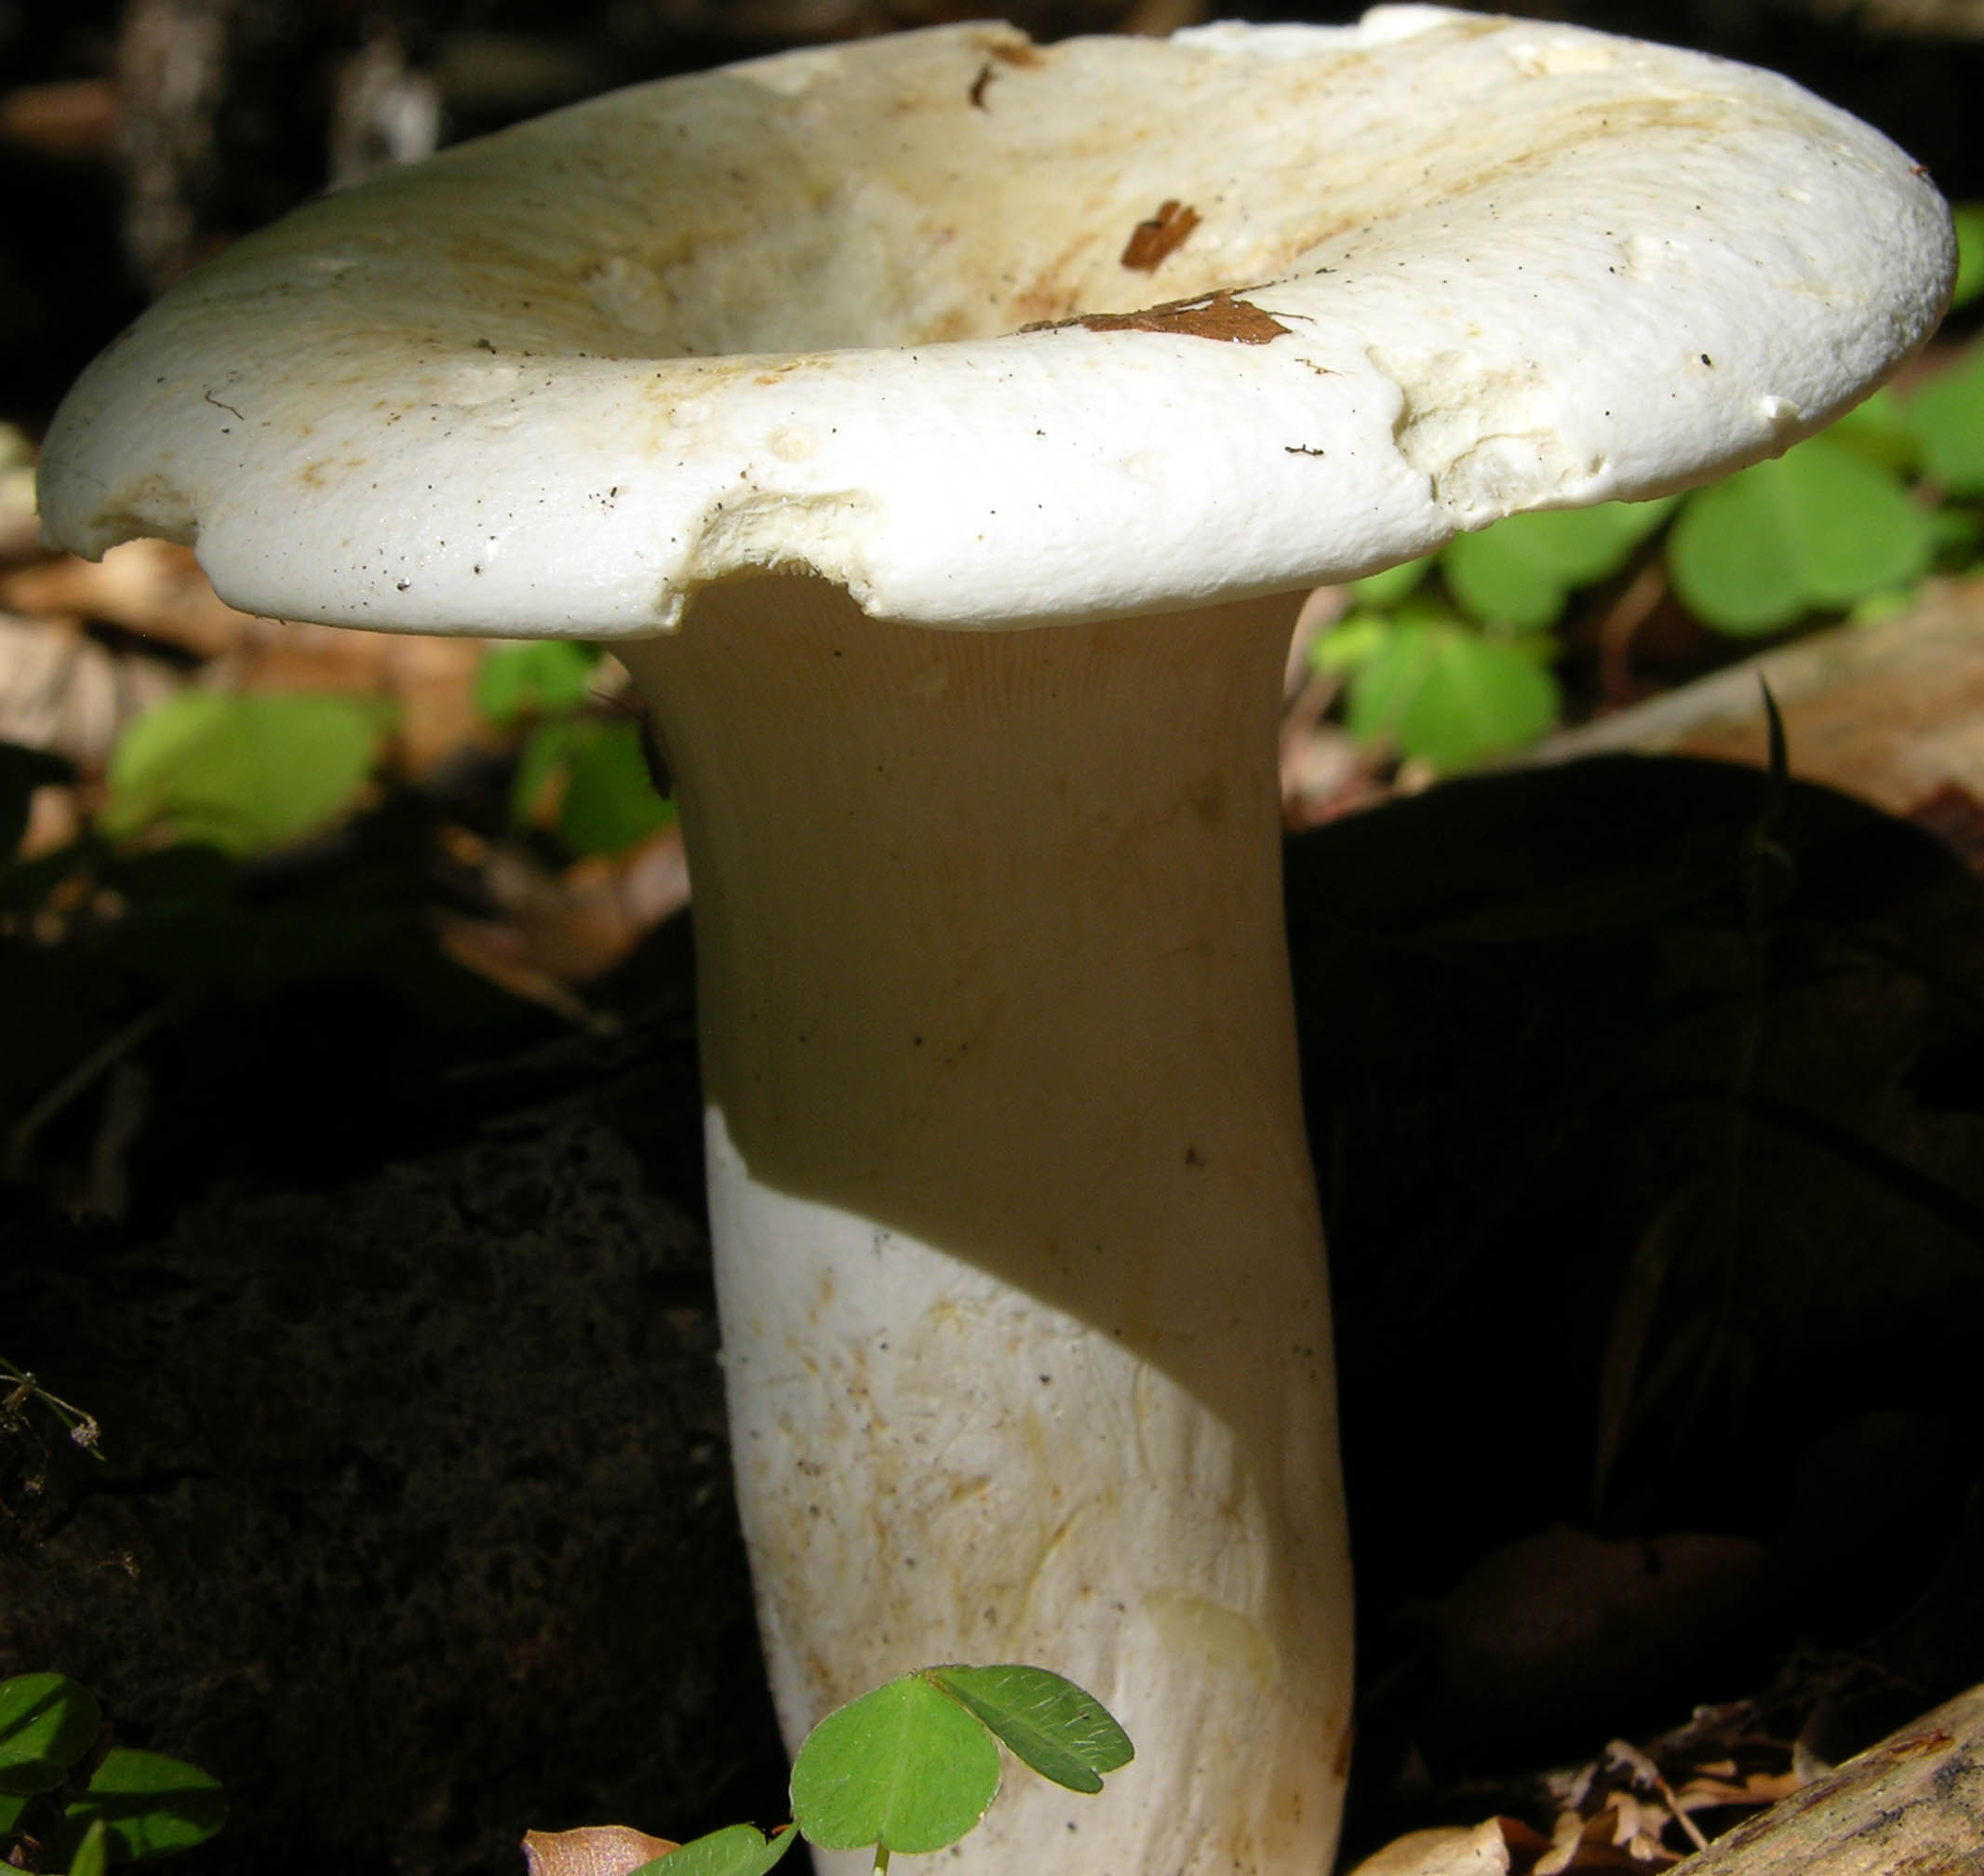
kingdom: Fungi
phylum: Basidiomycota
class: Agaricomycetes
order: Russulales
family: Russulaceae
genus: Lactifluus
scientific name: Lactifluus piperatus
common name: peber-mælkehat
